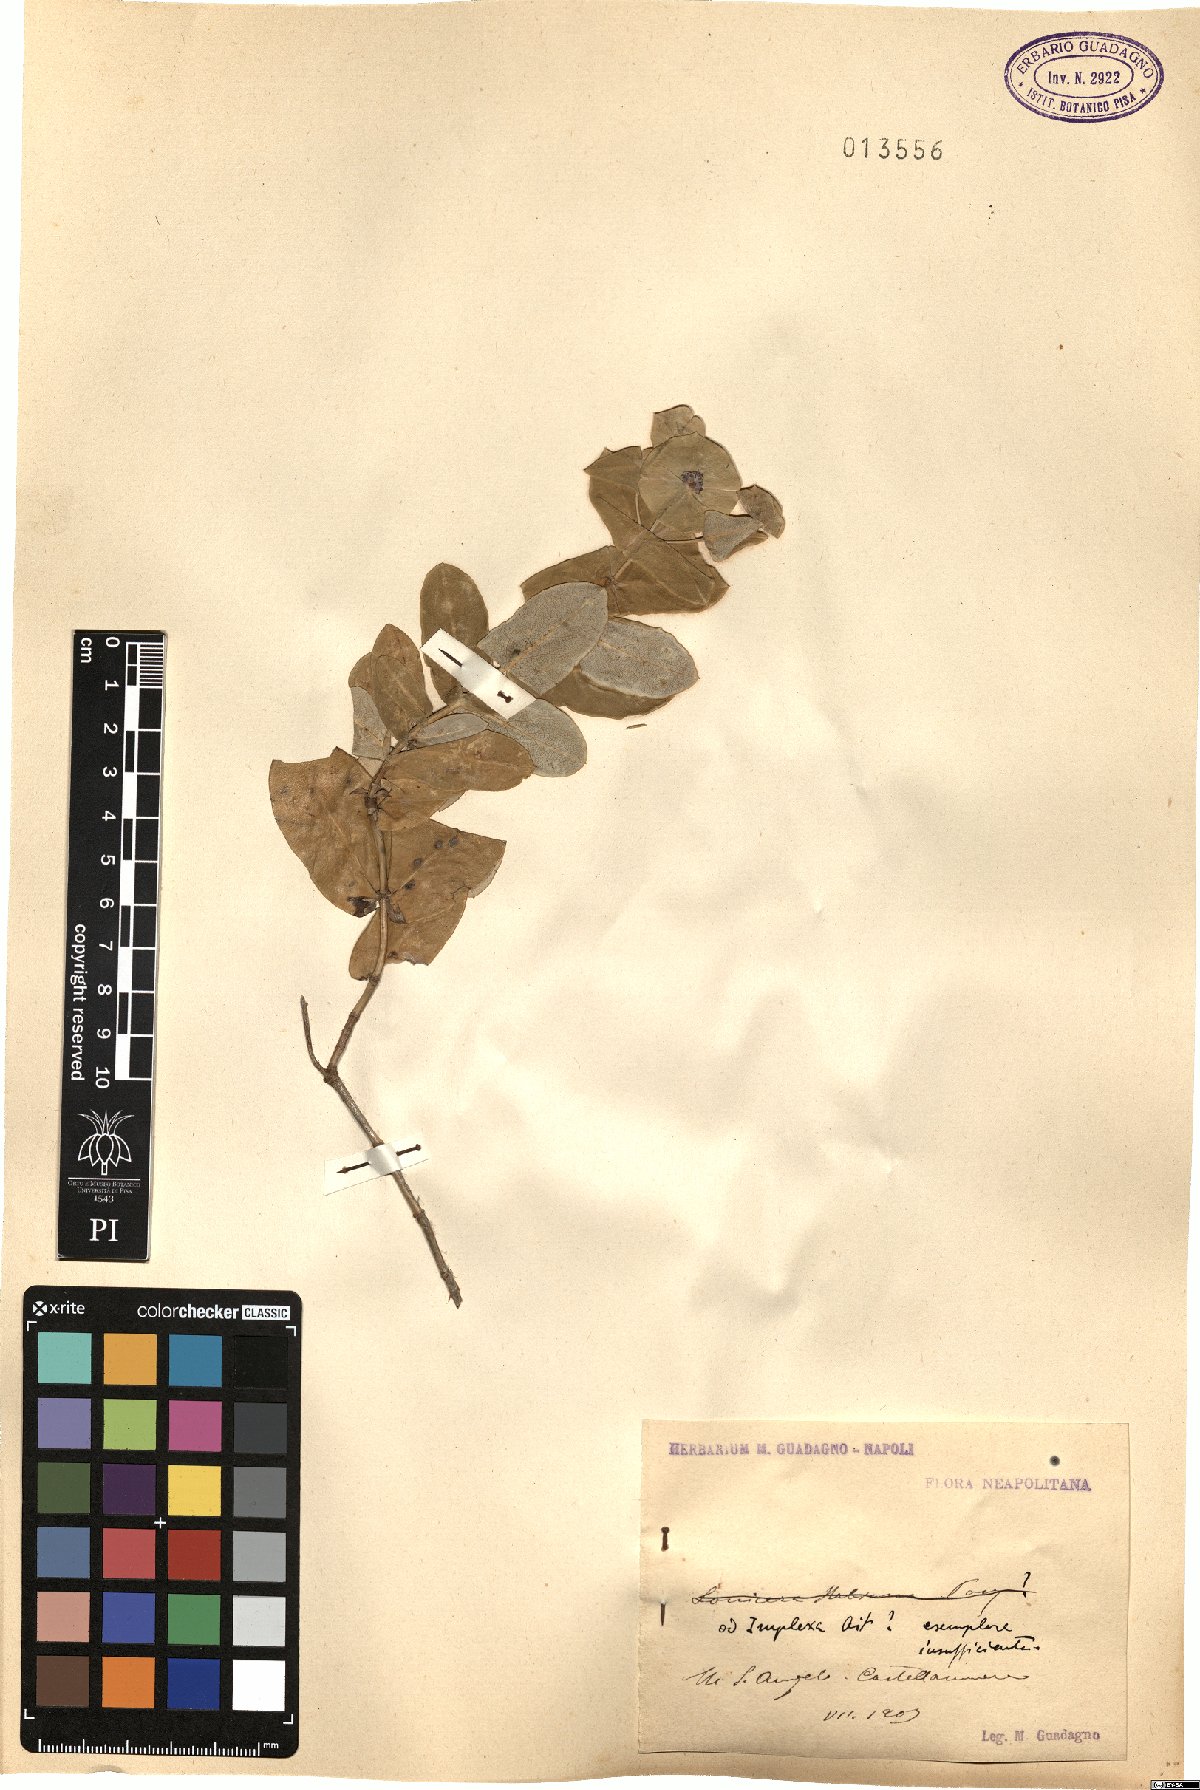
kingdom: Plantae
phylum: Tracheophyta
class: Magnoliopsida
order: Dipsacales
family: Caprifoliaceae
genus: Lonicera
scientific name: Lonicera
